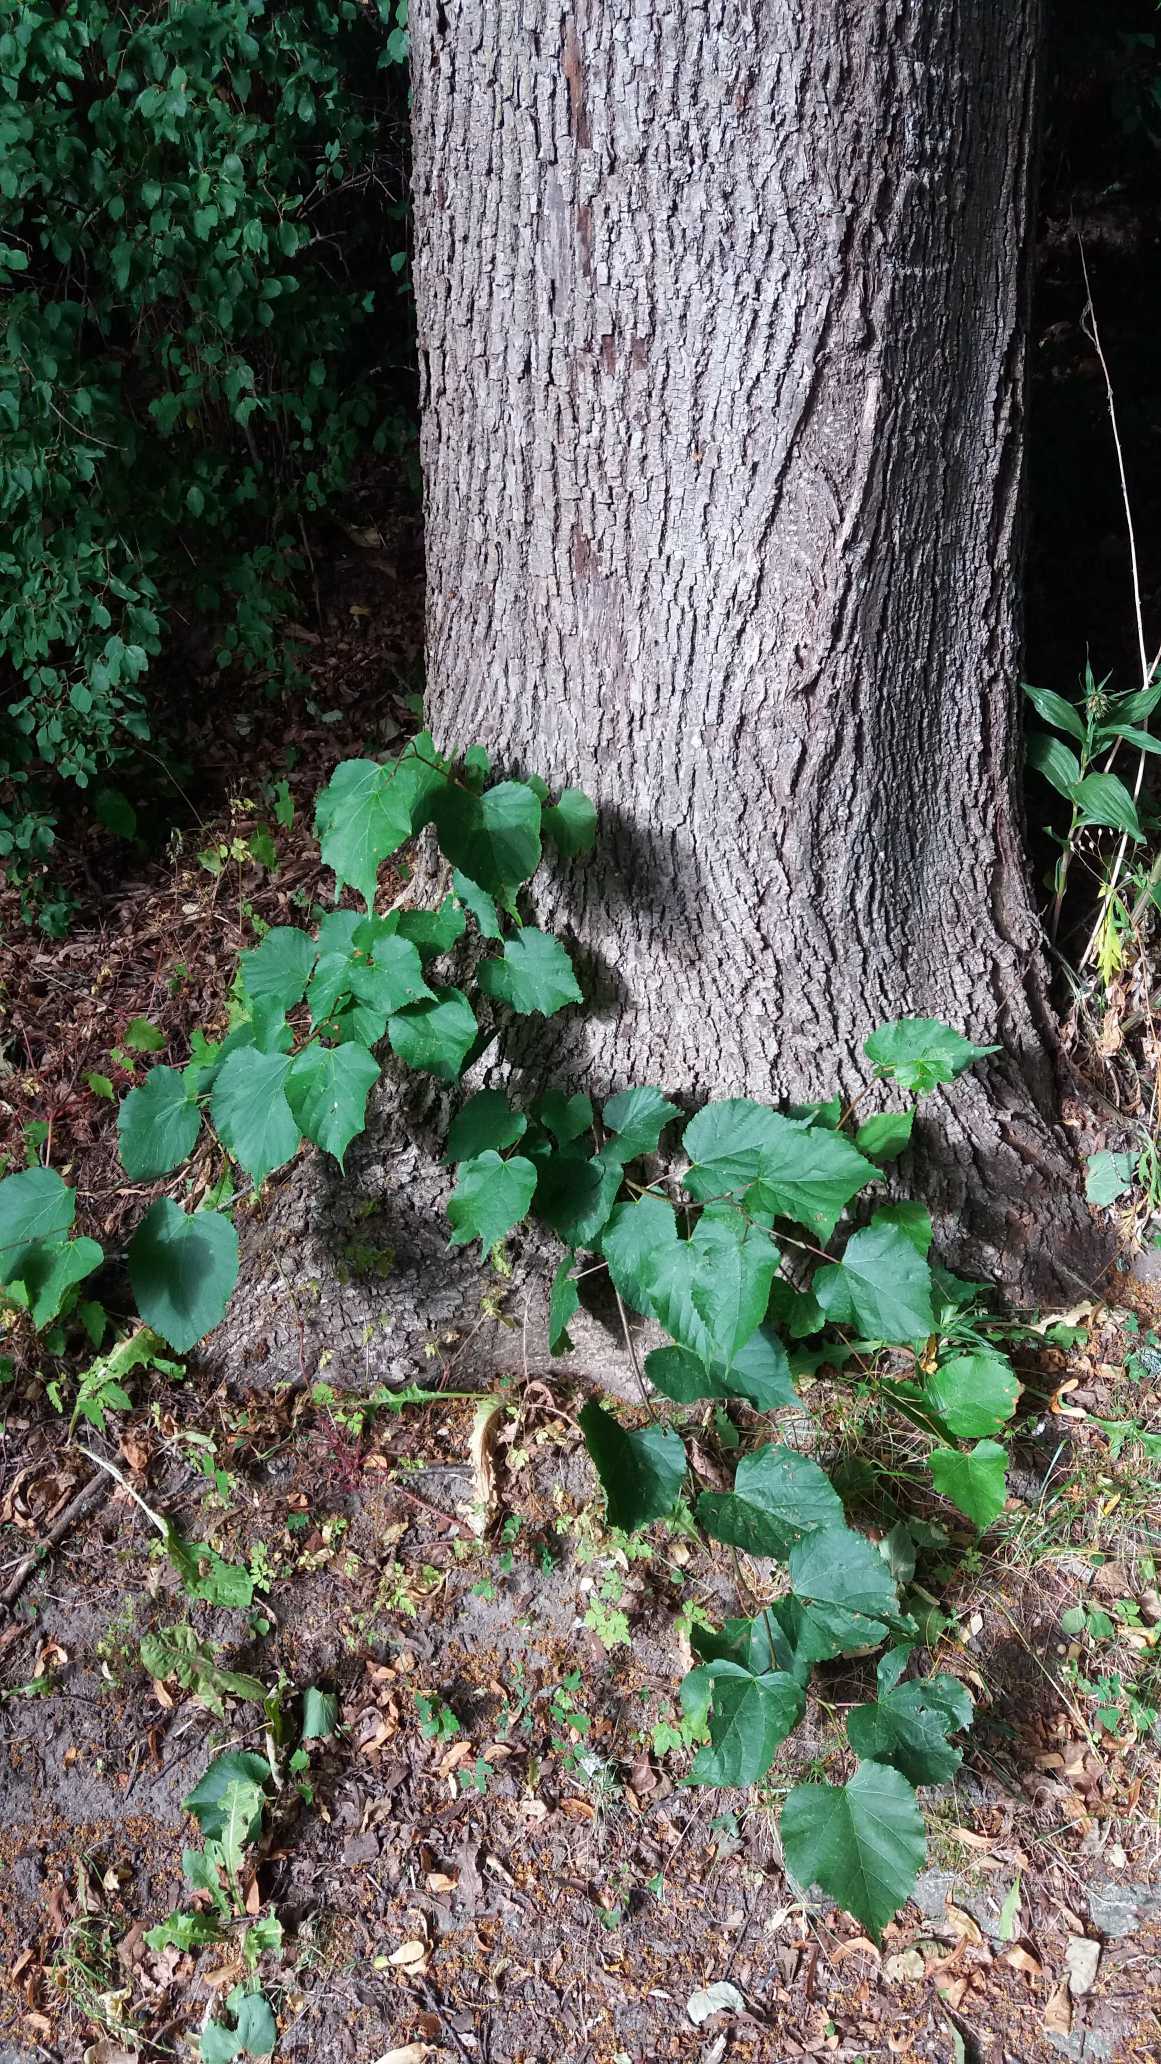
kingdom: Plantae
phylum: Tracheophyta
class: Magnoliopsida
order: Malvales
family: Malvaceae
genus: Tilia
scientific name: Tilia
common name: Lindeslægten
